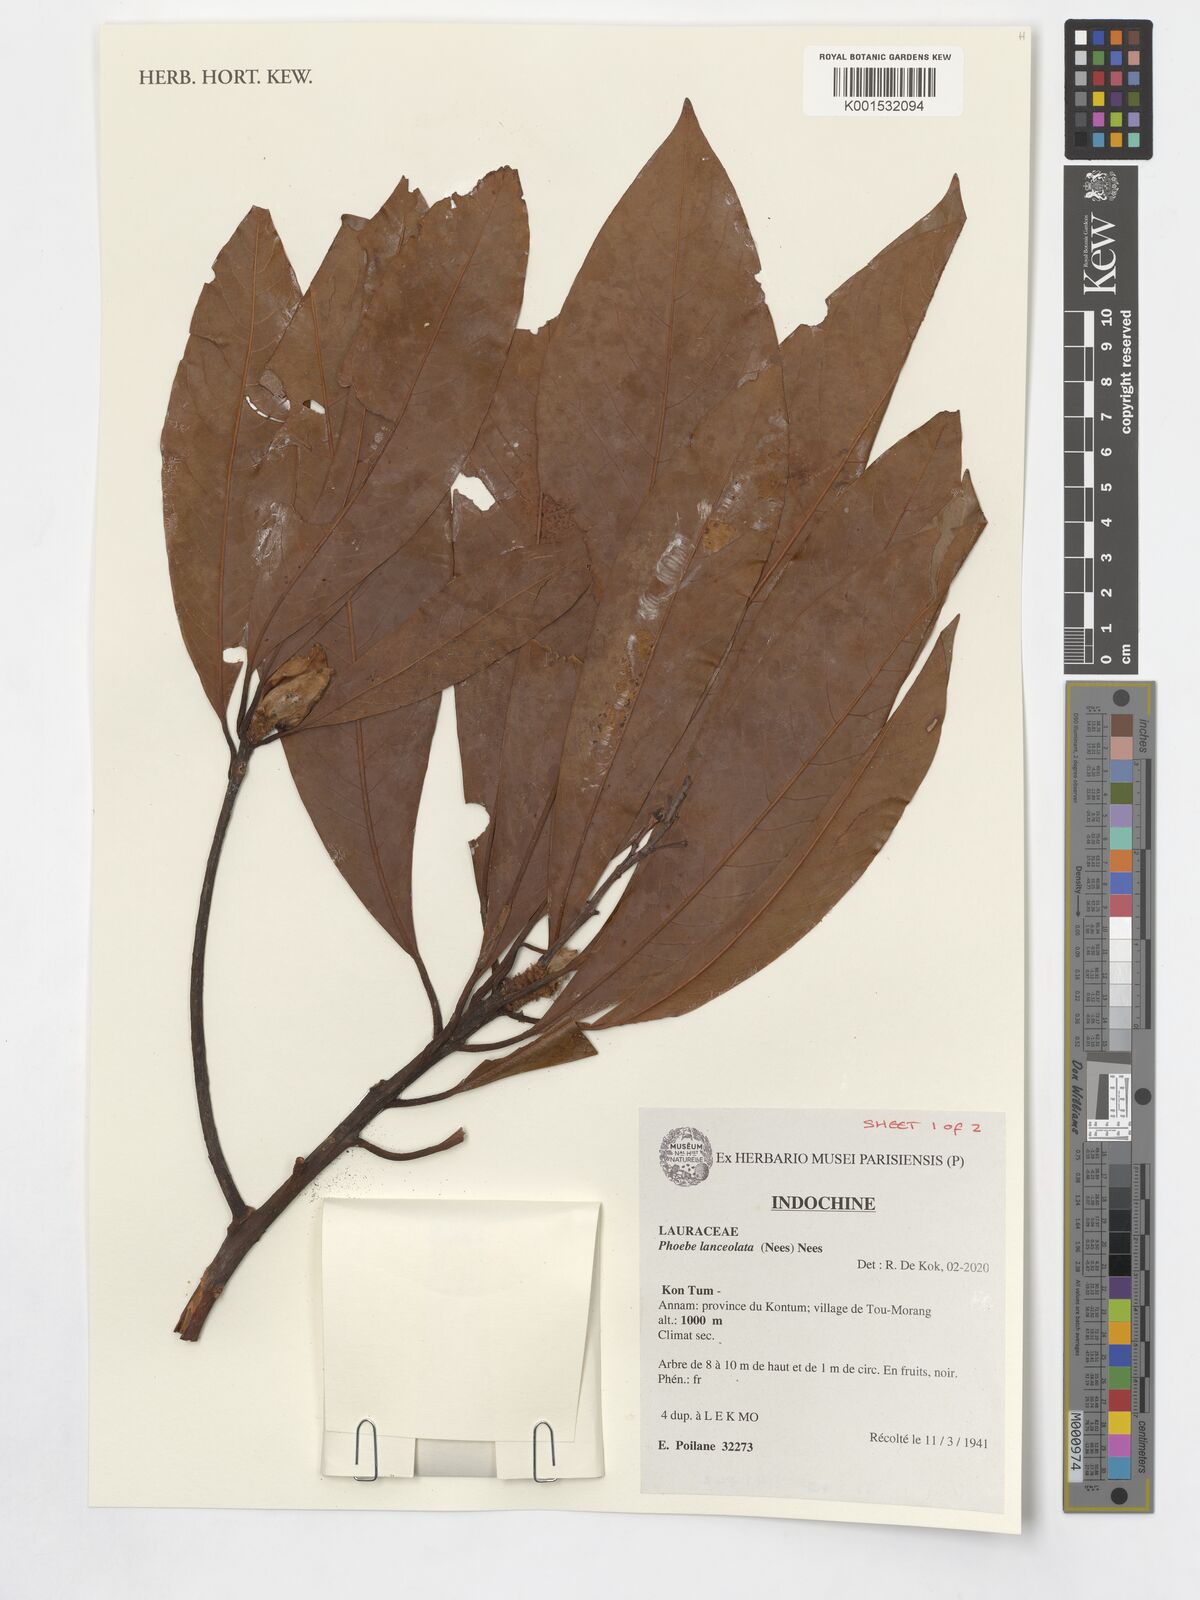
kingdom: Plantae
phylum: Tracheophyta
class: Magnoliopsida
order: Laurales
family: Lauraceae
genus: Phoebe
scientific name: Phoebe lanceolata
